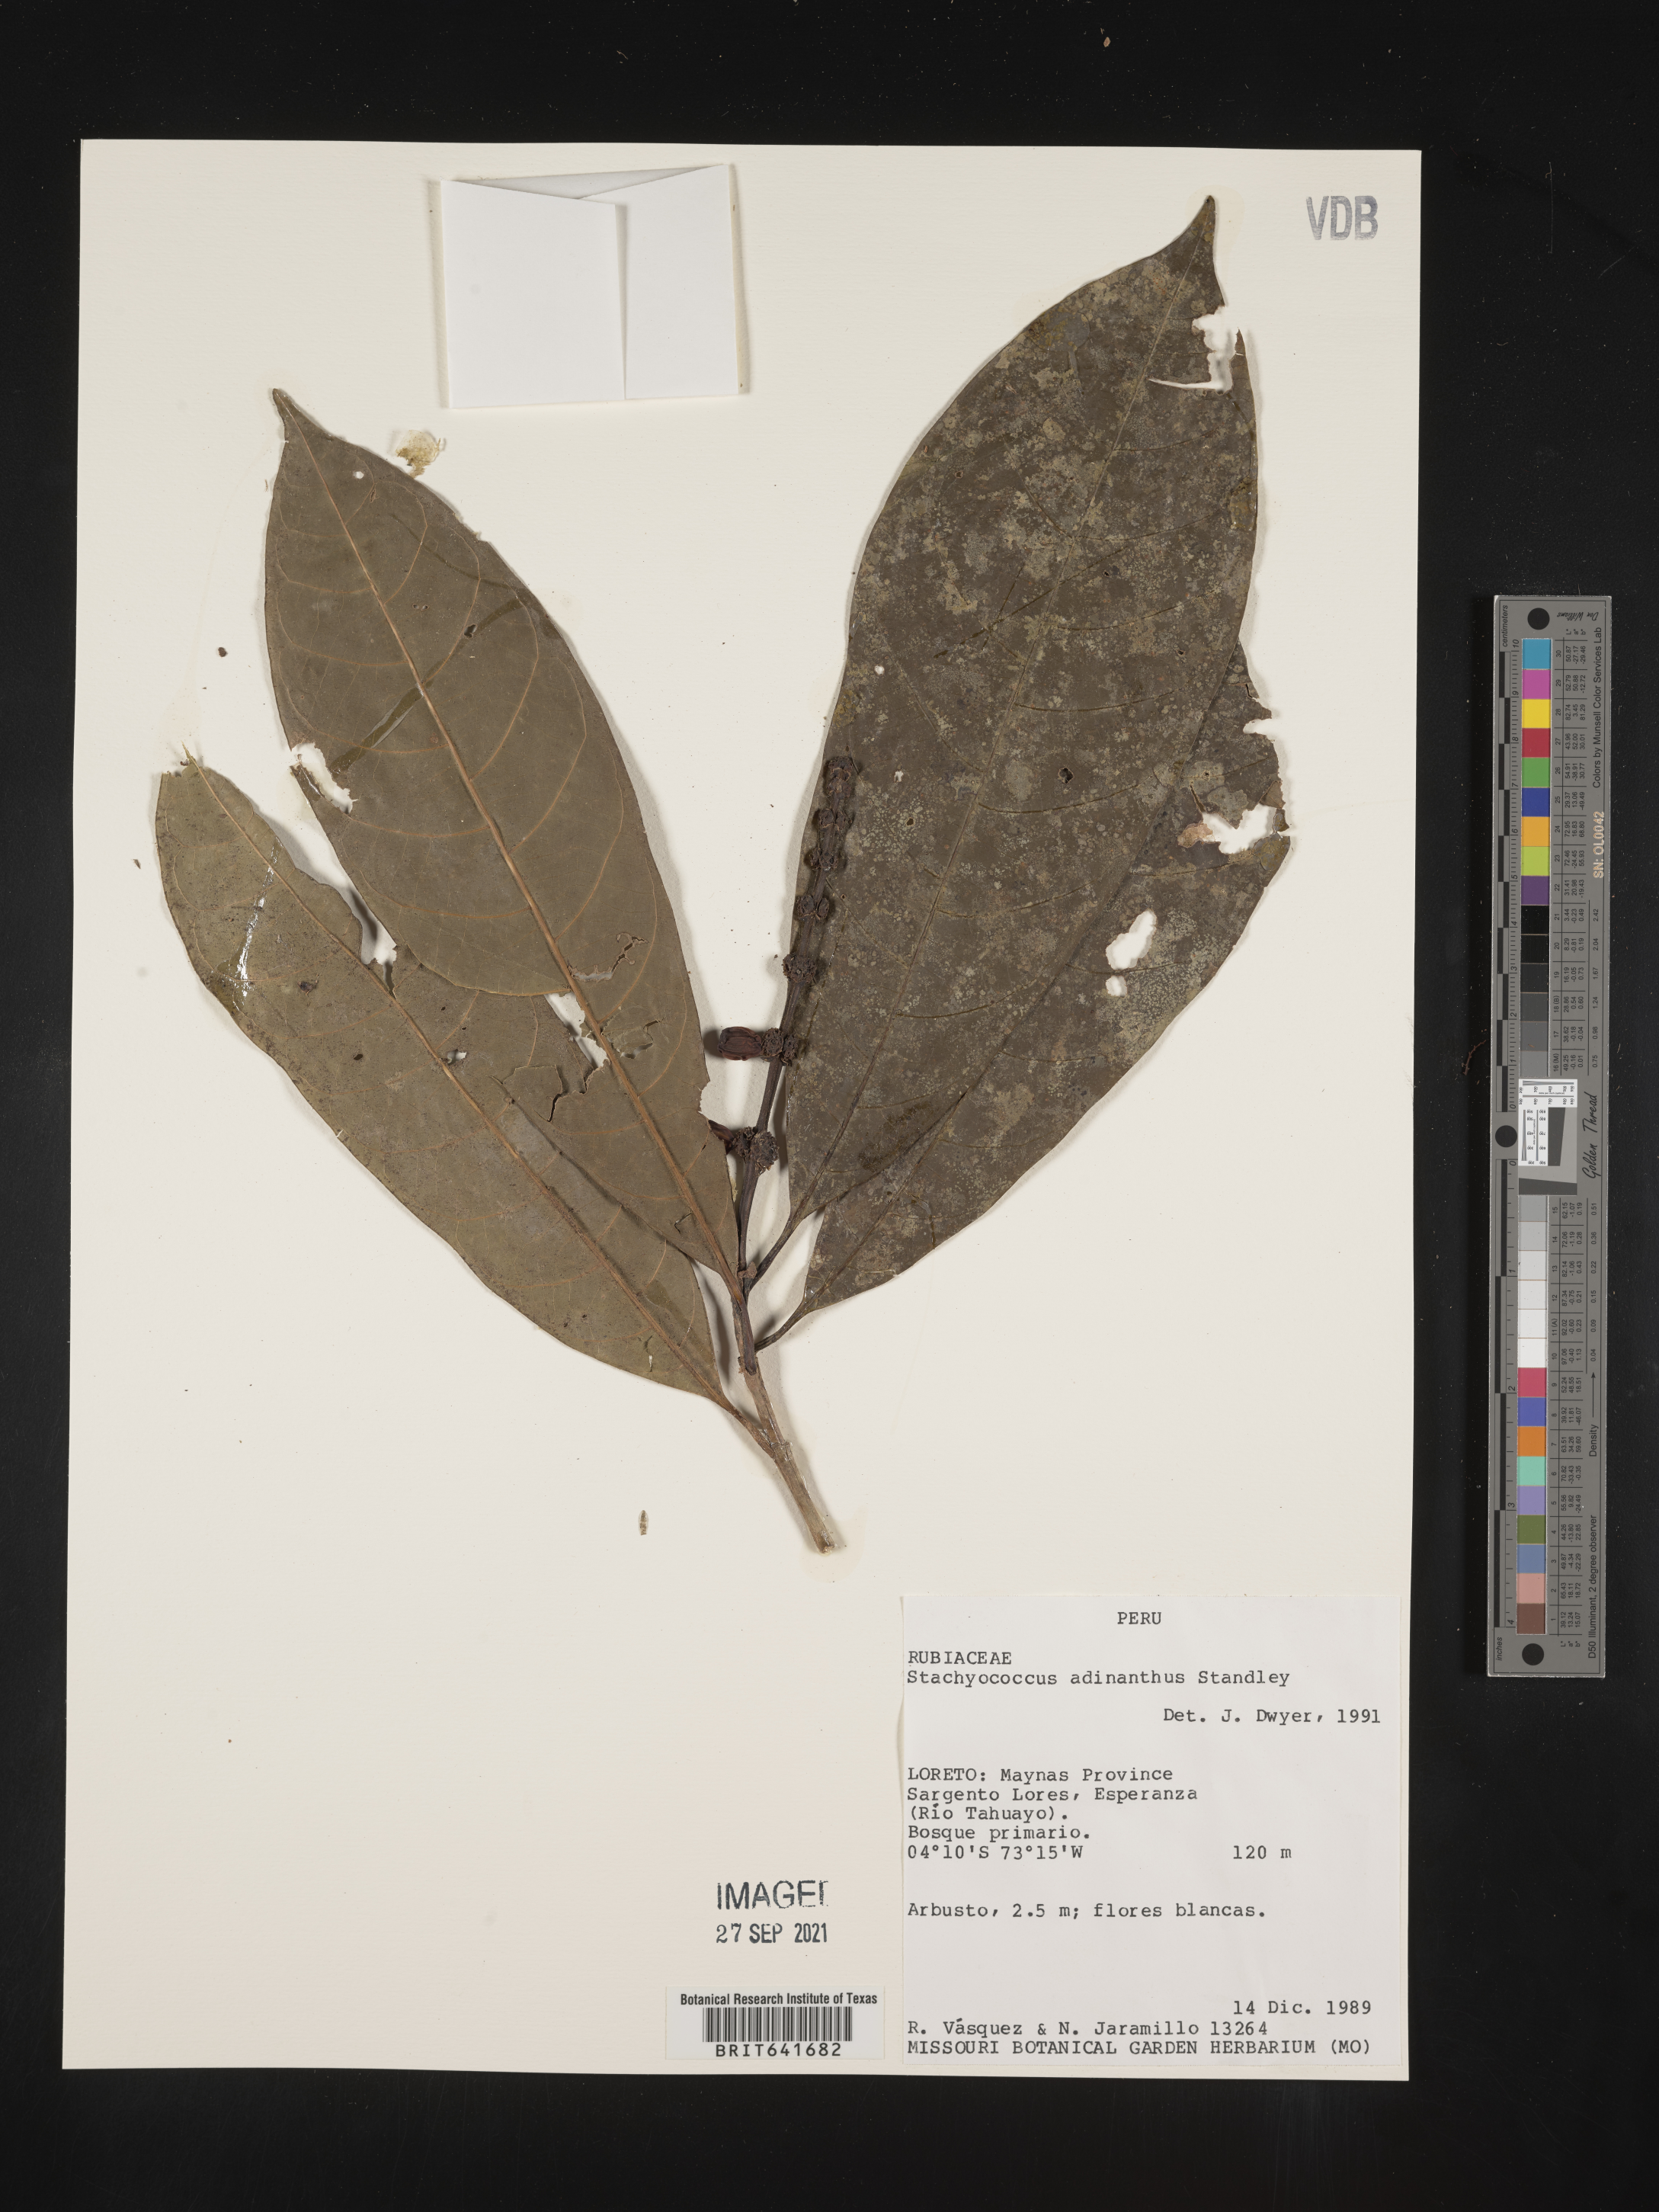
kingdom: Plantae
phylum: Tracheophyta
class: Magnoliopsida
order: Gentianales
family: Rubiaceae
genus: Carapichea
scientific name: Carapichea
